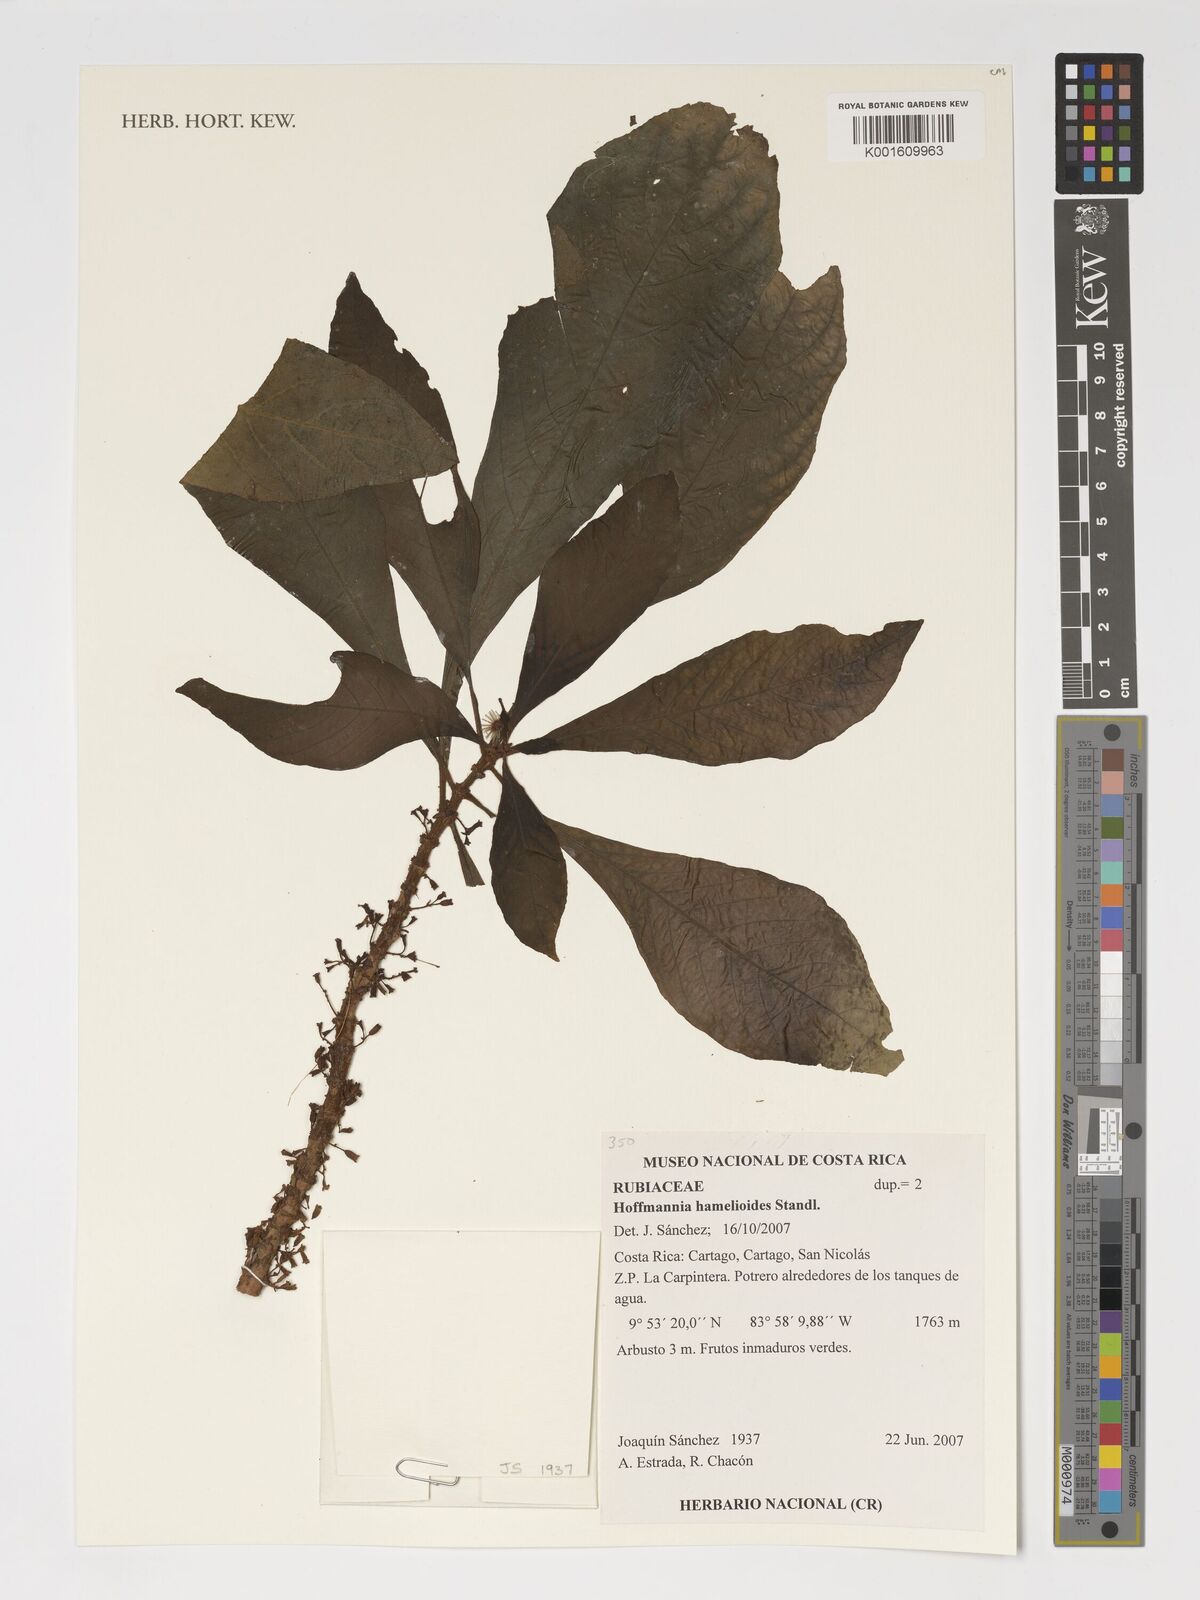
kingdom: Plantae
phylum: Tracheophyta
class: Magnoliopsida
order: Gentianales
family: Rubiaceae
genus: Hoffmannia
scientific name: Hoffmannia arborescens
